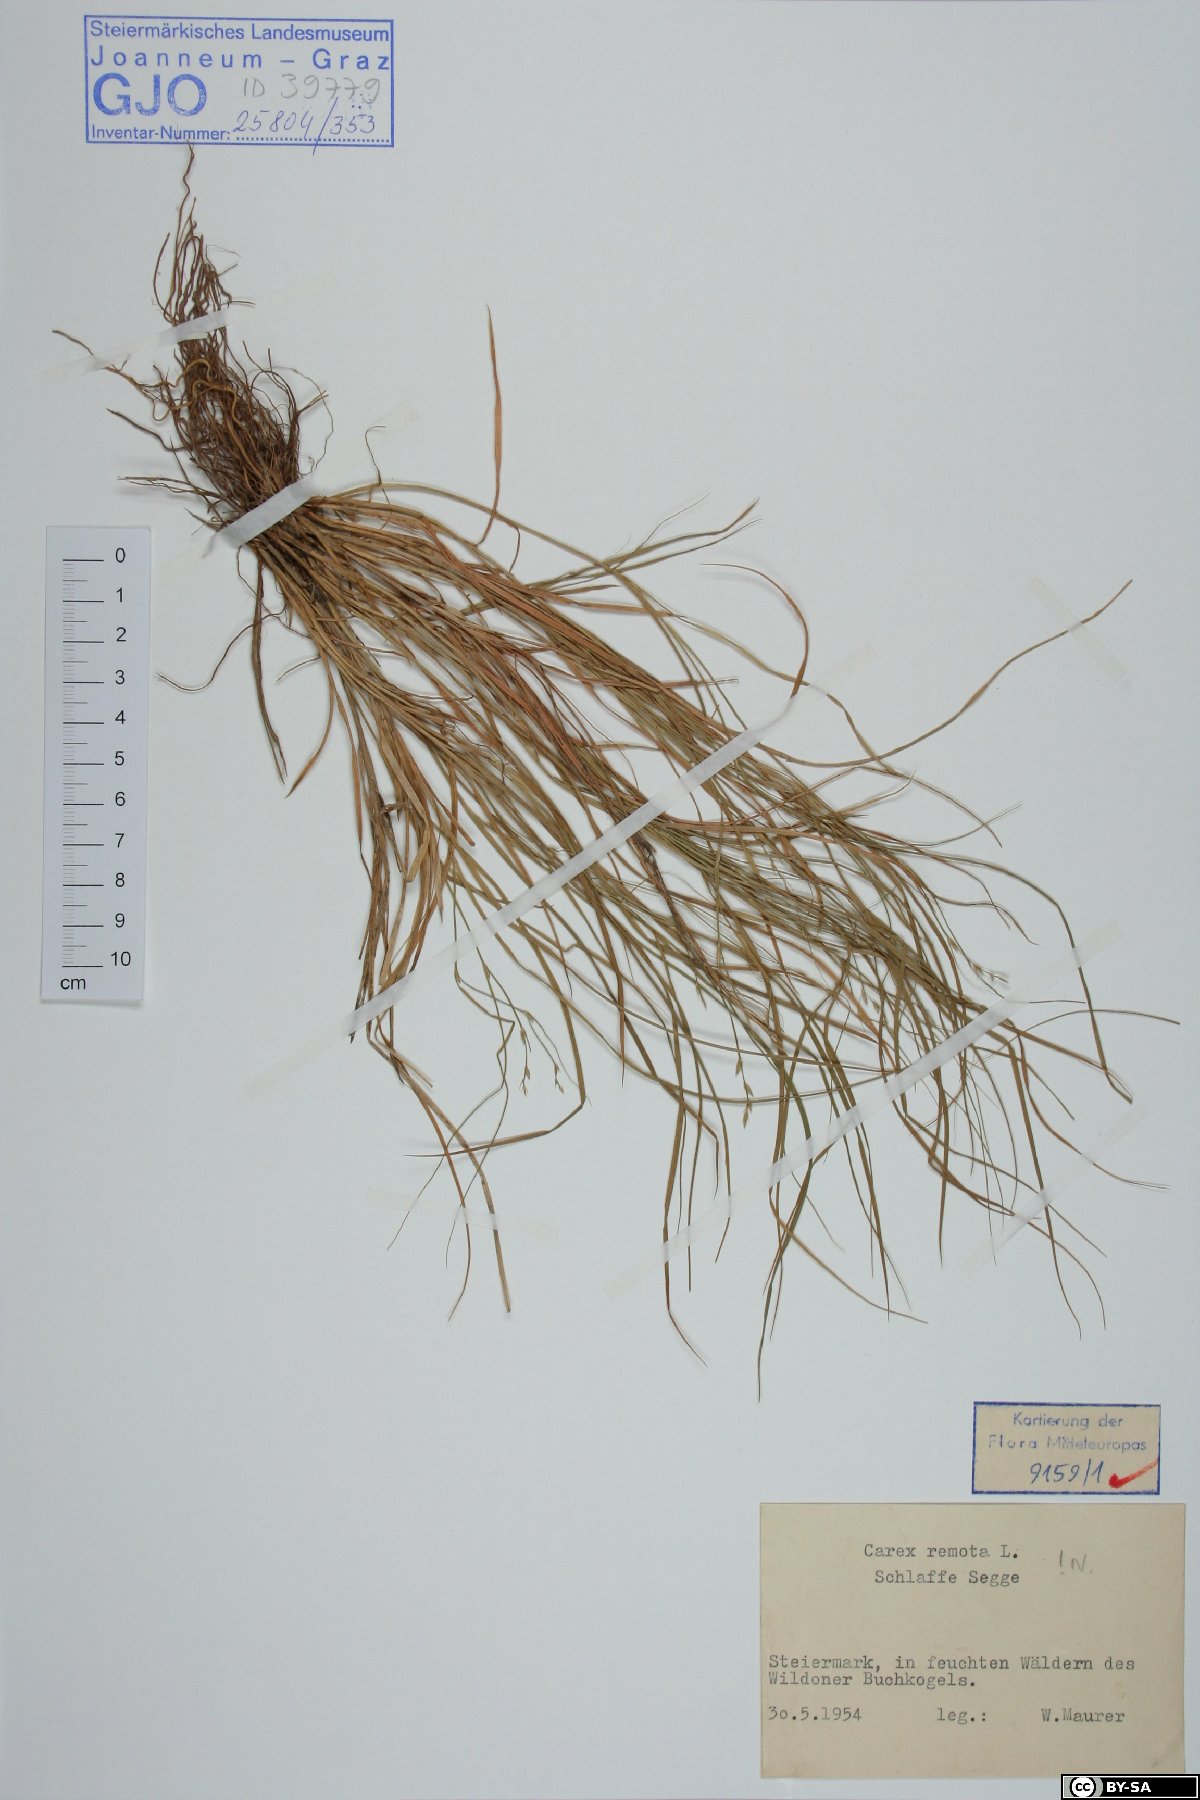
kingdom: Plantae
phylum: Tracheophyta
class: Liliopsida
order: Poales
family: Cyperaceae
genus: Carex
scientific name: Carex remota
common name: Remote sedge
